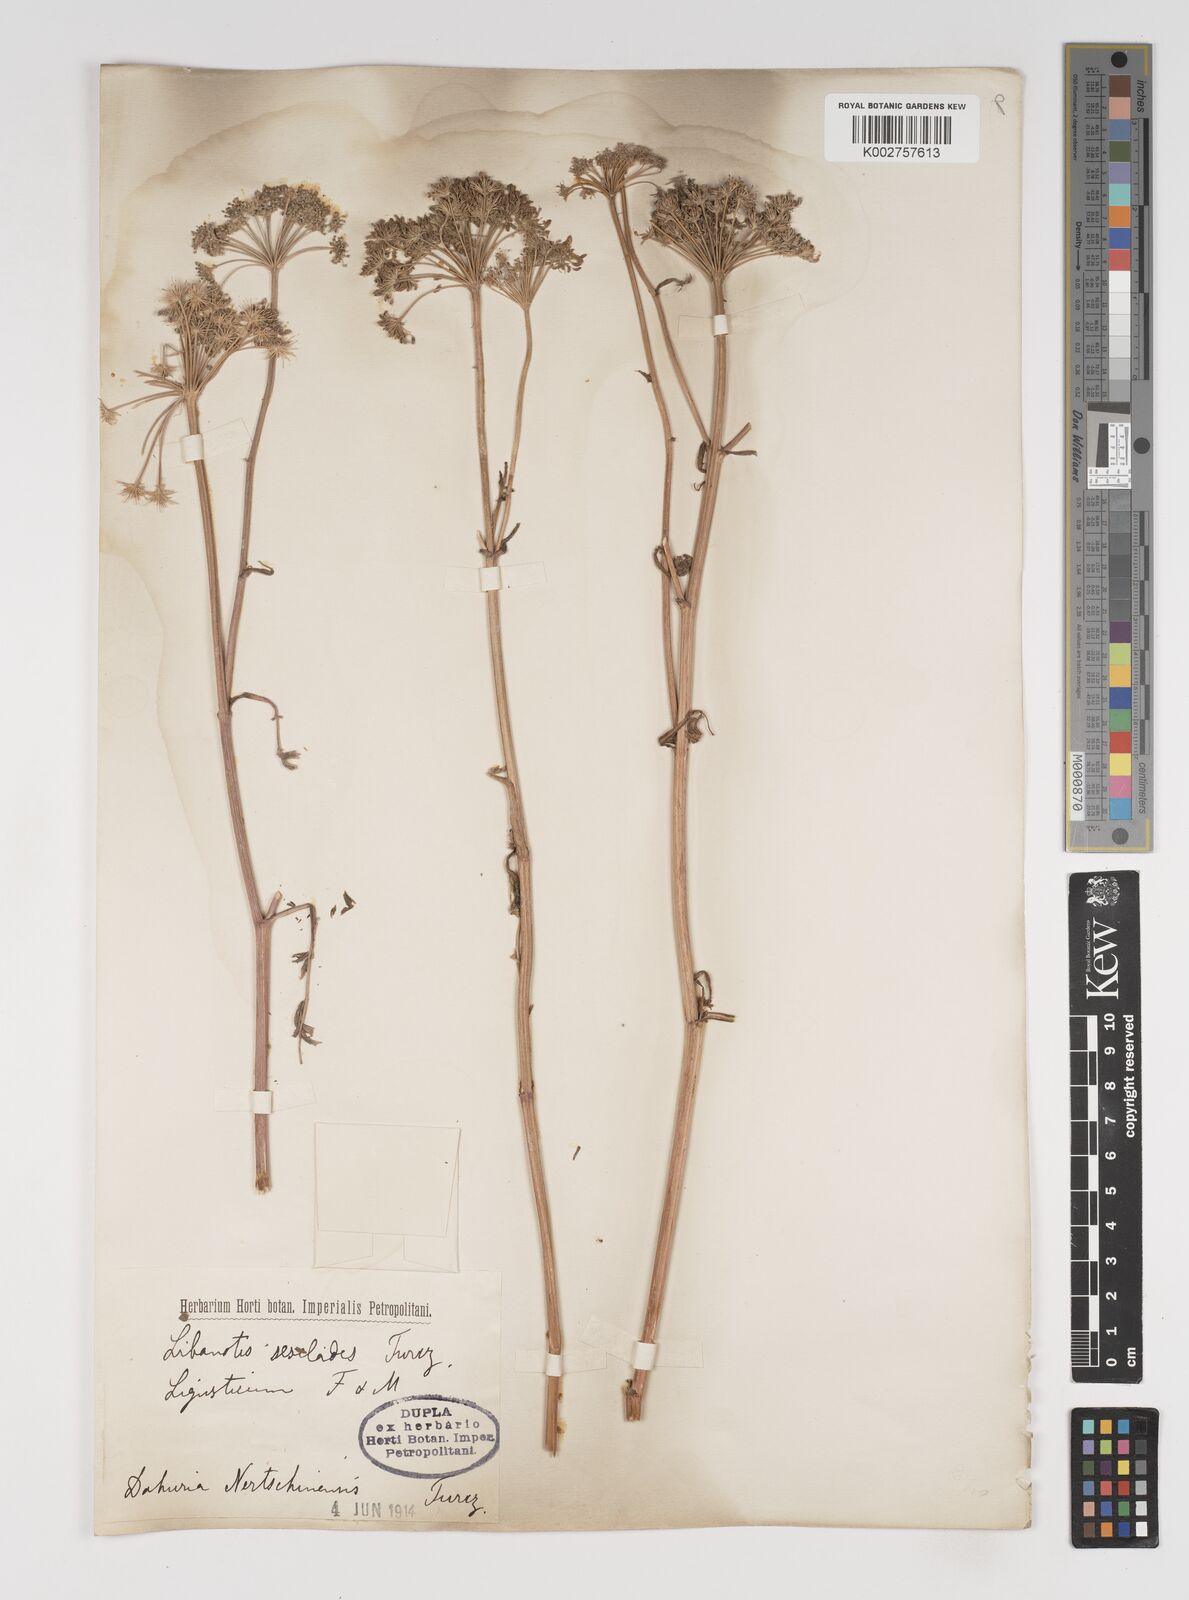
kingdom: Plantae
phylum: Tracheophyta
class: Magnoliopsida
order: Apiales
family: Apiaceae
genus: Seseli
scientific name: Seseli seseloides
